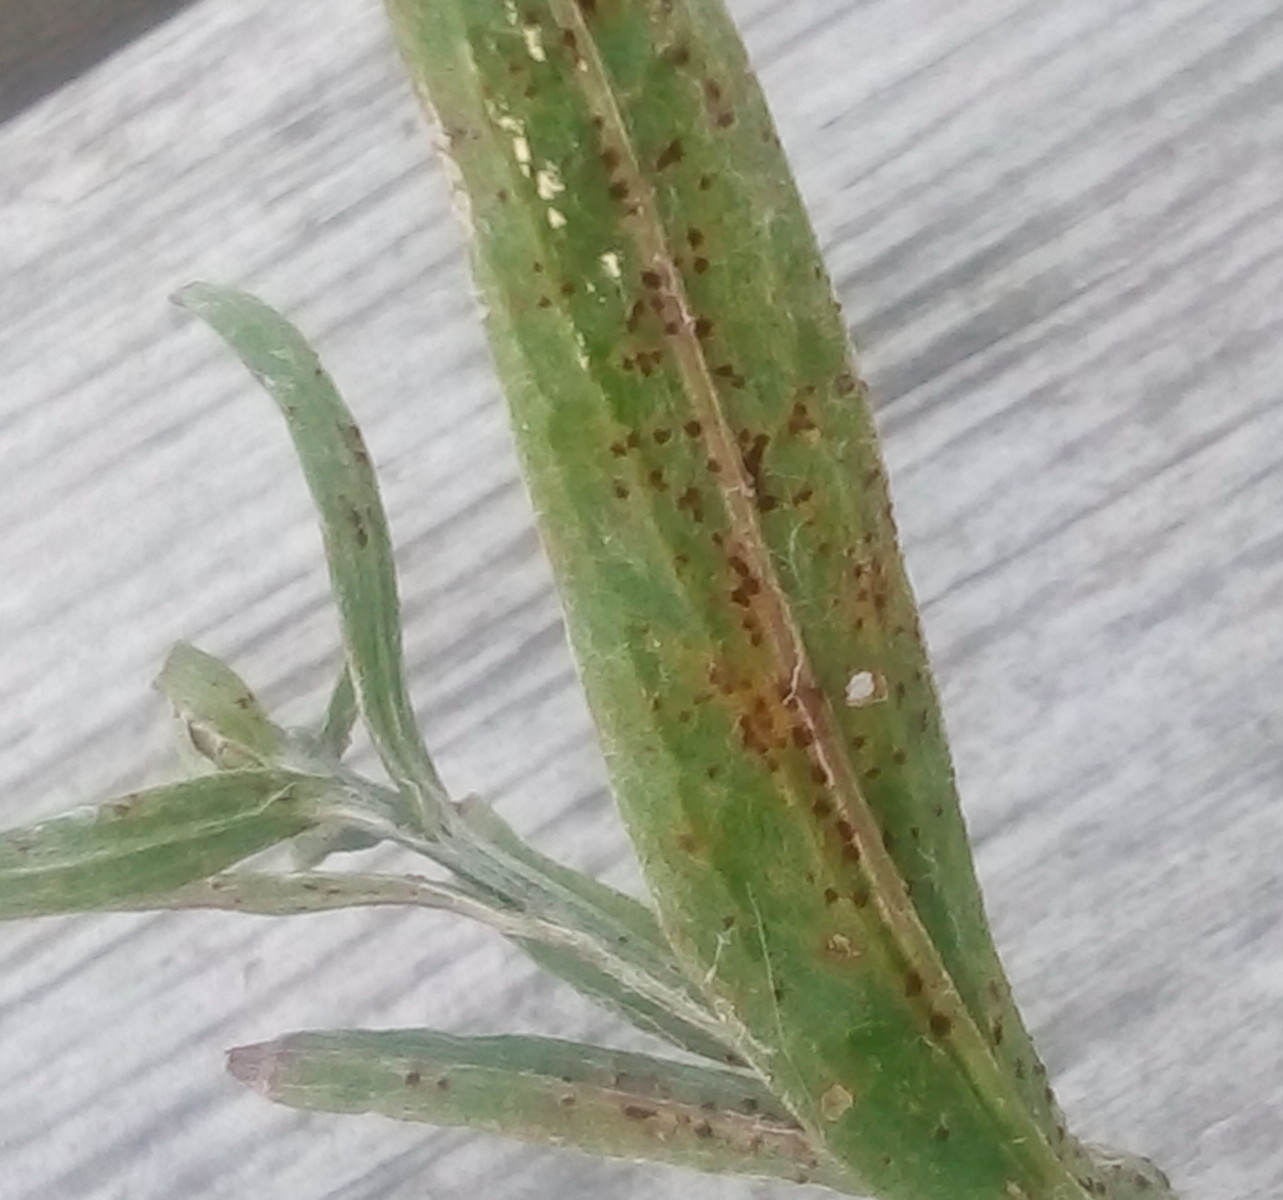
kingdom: Fungi
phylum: Basidiomycota
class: Pucciniomycetes
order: Pucciniales
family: Pucciniaceae
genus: Puccinia
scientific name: Puccinia hieracii
